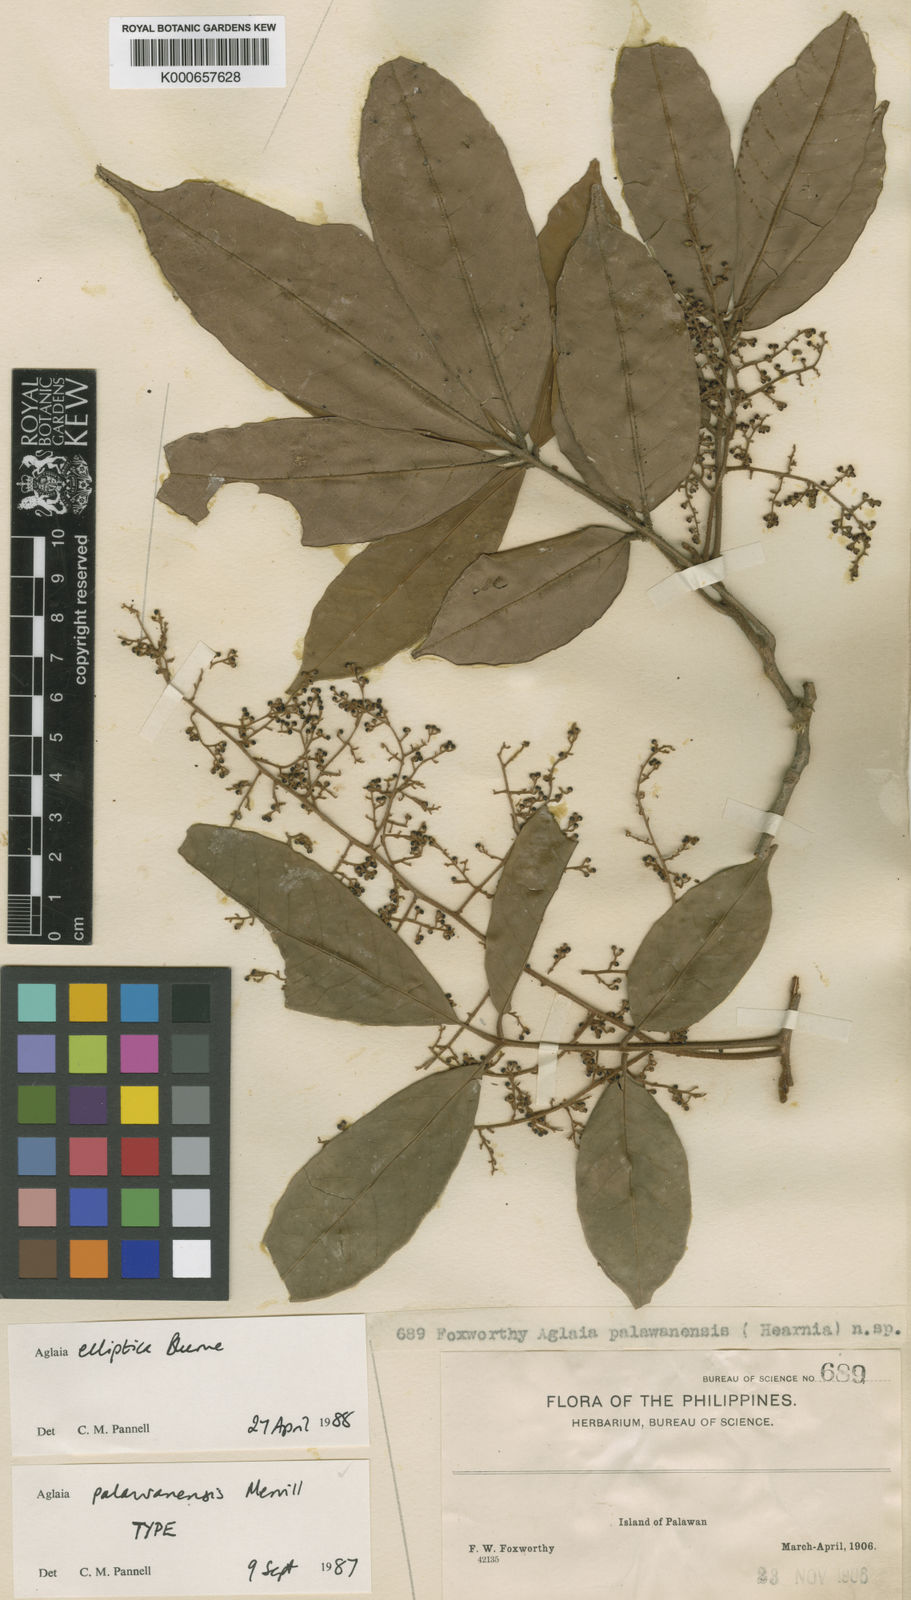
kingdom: Plantae
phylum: Tracheophyta
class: Magnoliopsida
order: Sapindales
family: Meliaceae
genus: Aglaia
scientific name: Aglaia elliptica
